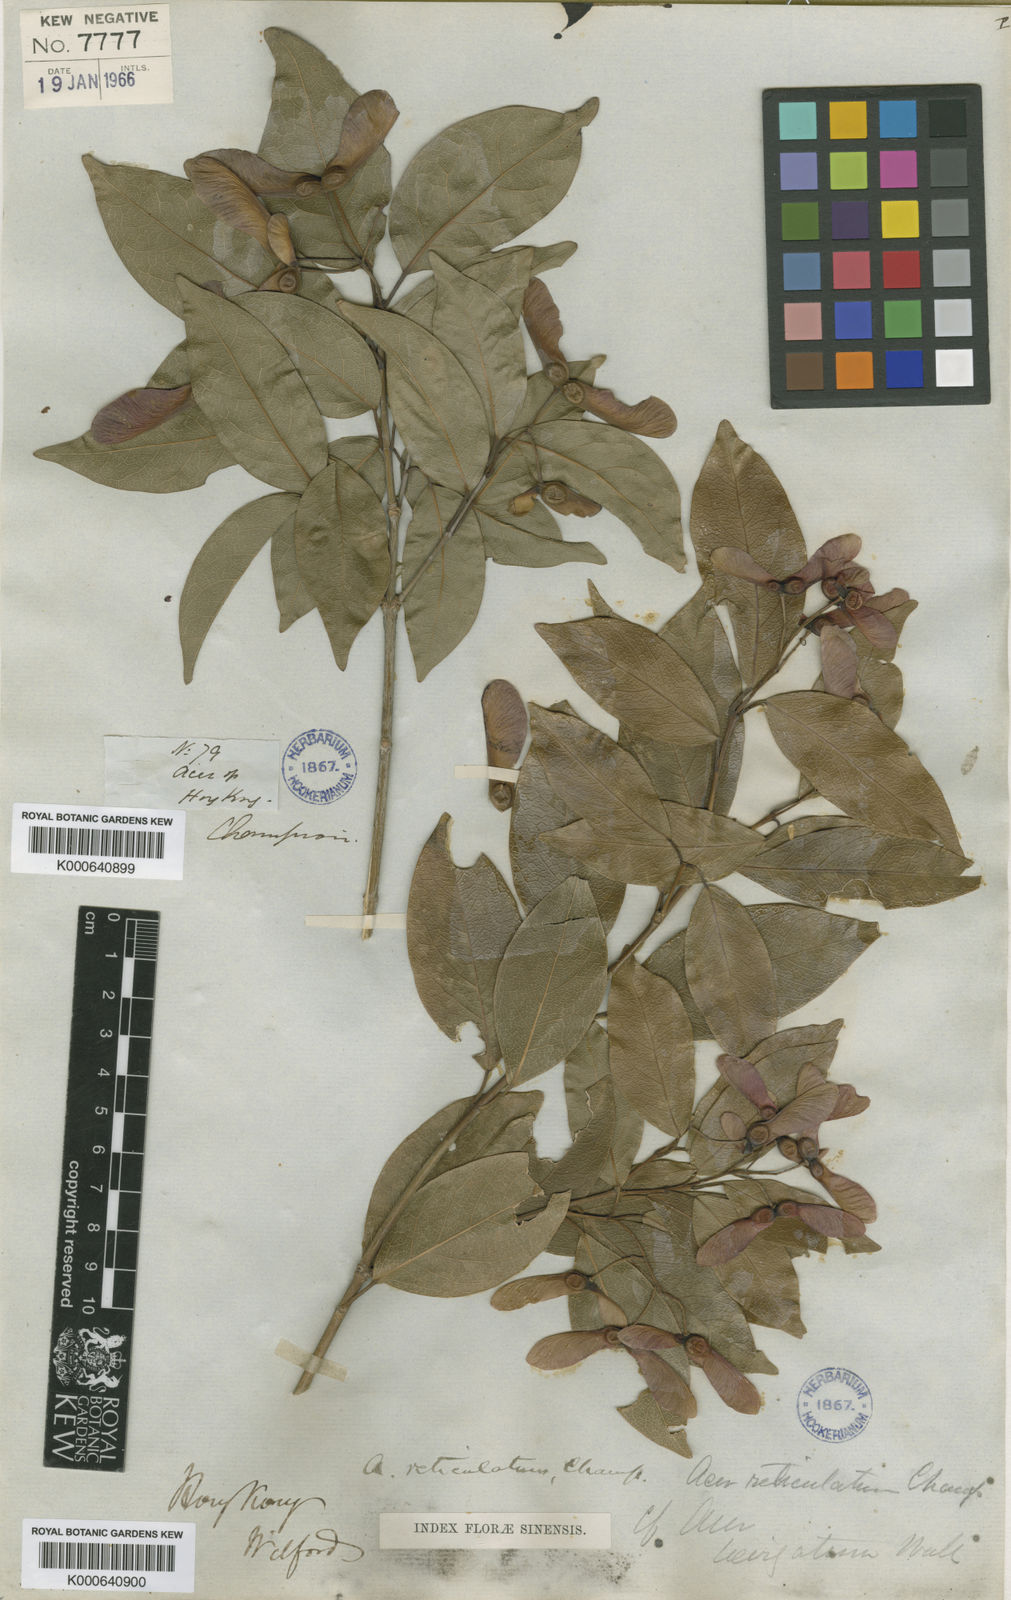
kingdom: Plantae
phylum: Tracheophyta
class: Magnoliopsida
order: Sapindales
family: Sapindaceae
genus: Acer
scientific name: Acer
